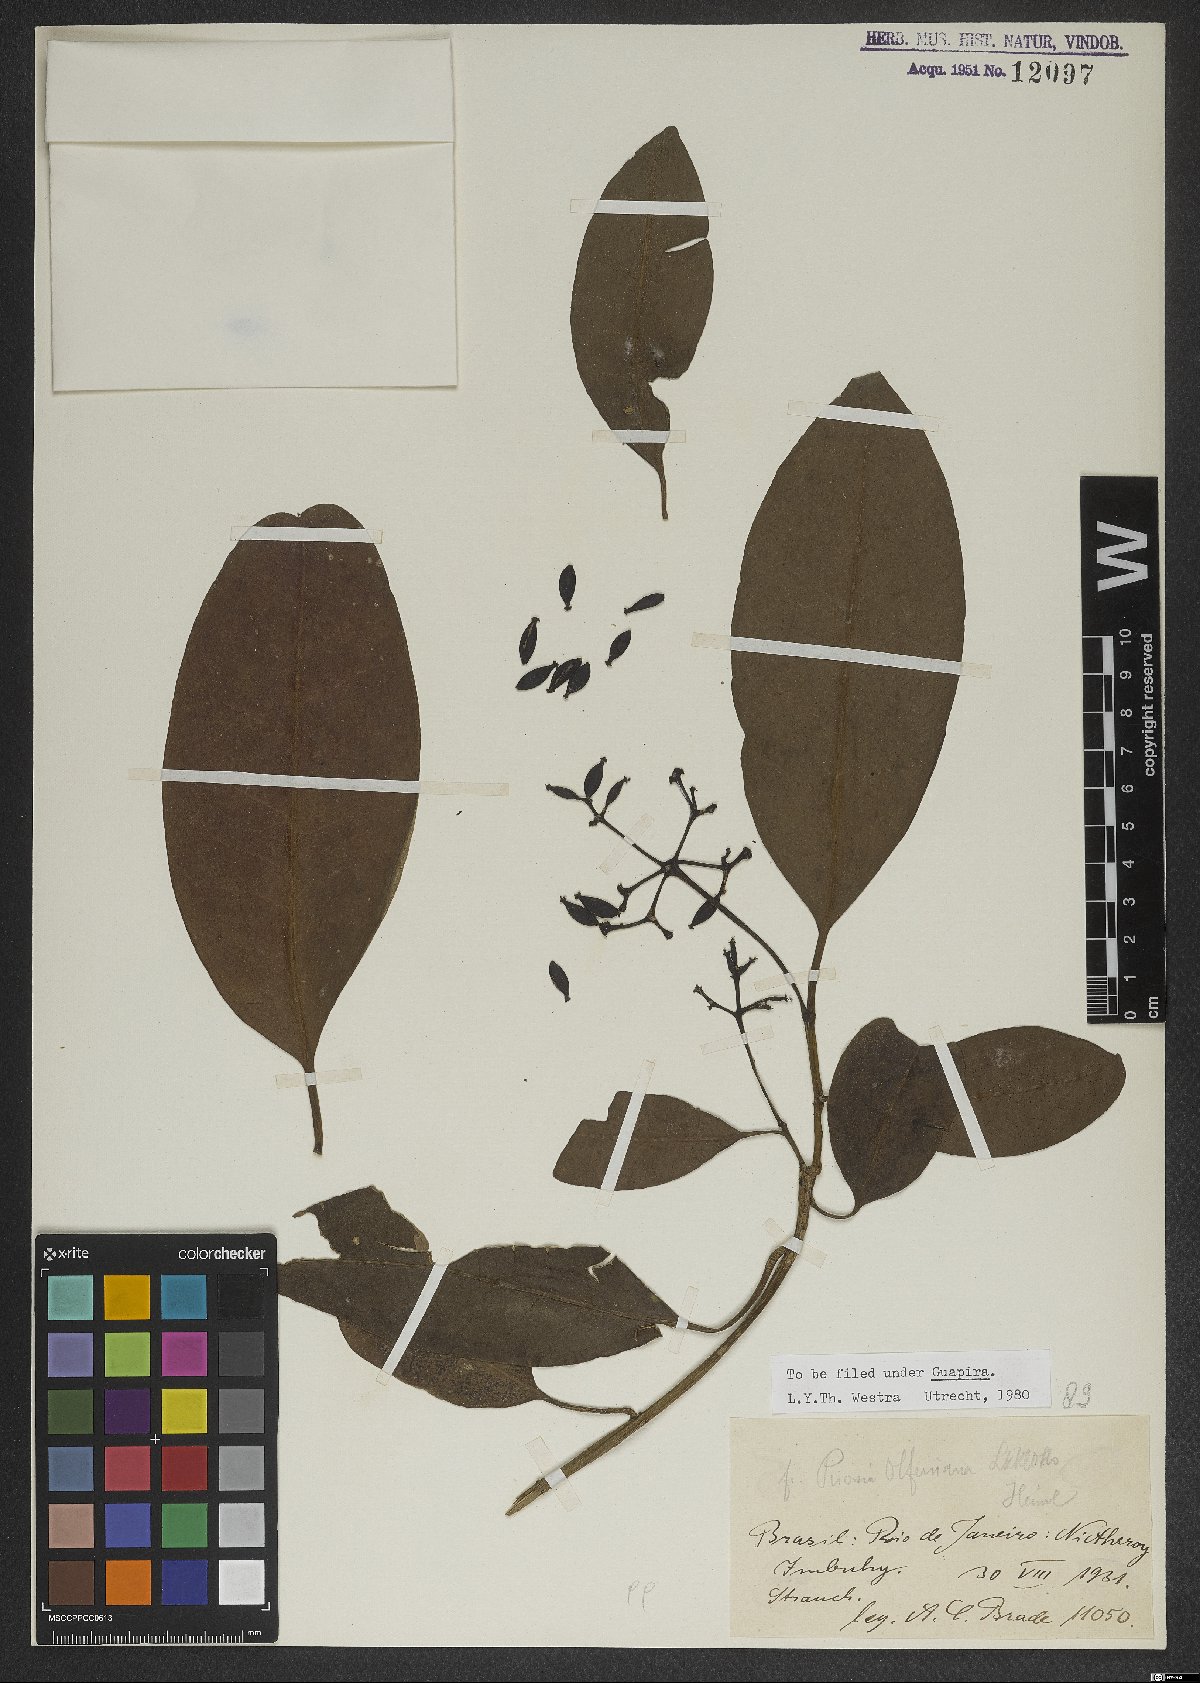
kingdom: Plantae
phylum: Tracheophyta
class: Magnoliopsida
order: Caryophyllales
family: Nyctaginaceae
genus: Guapira
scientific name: Guapira opposita
